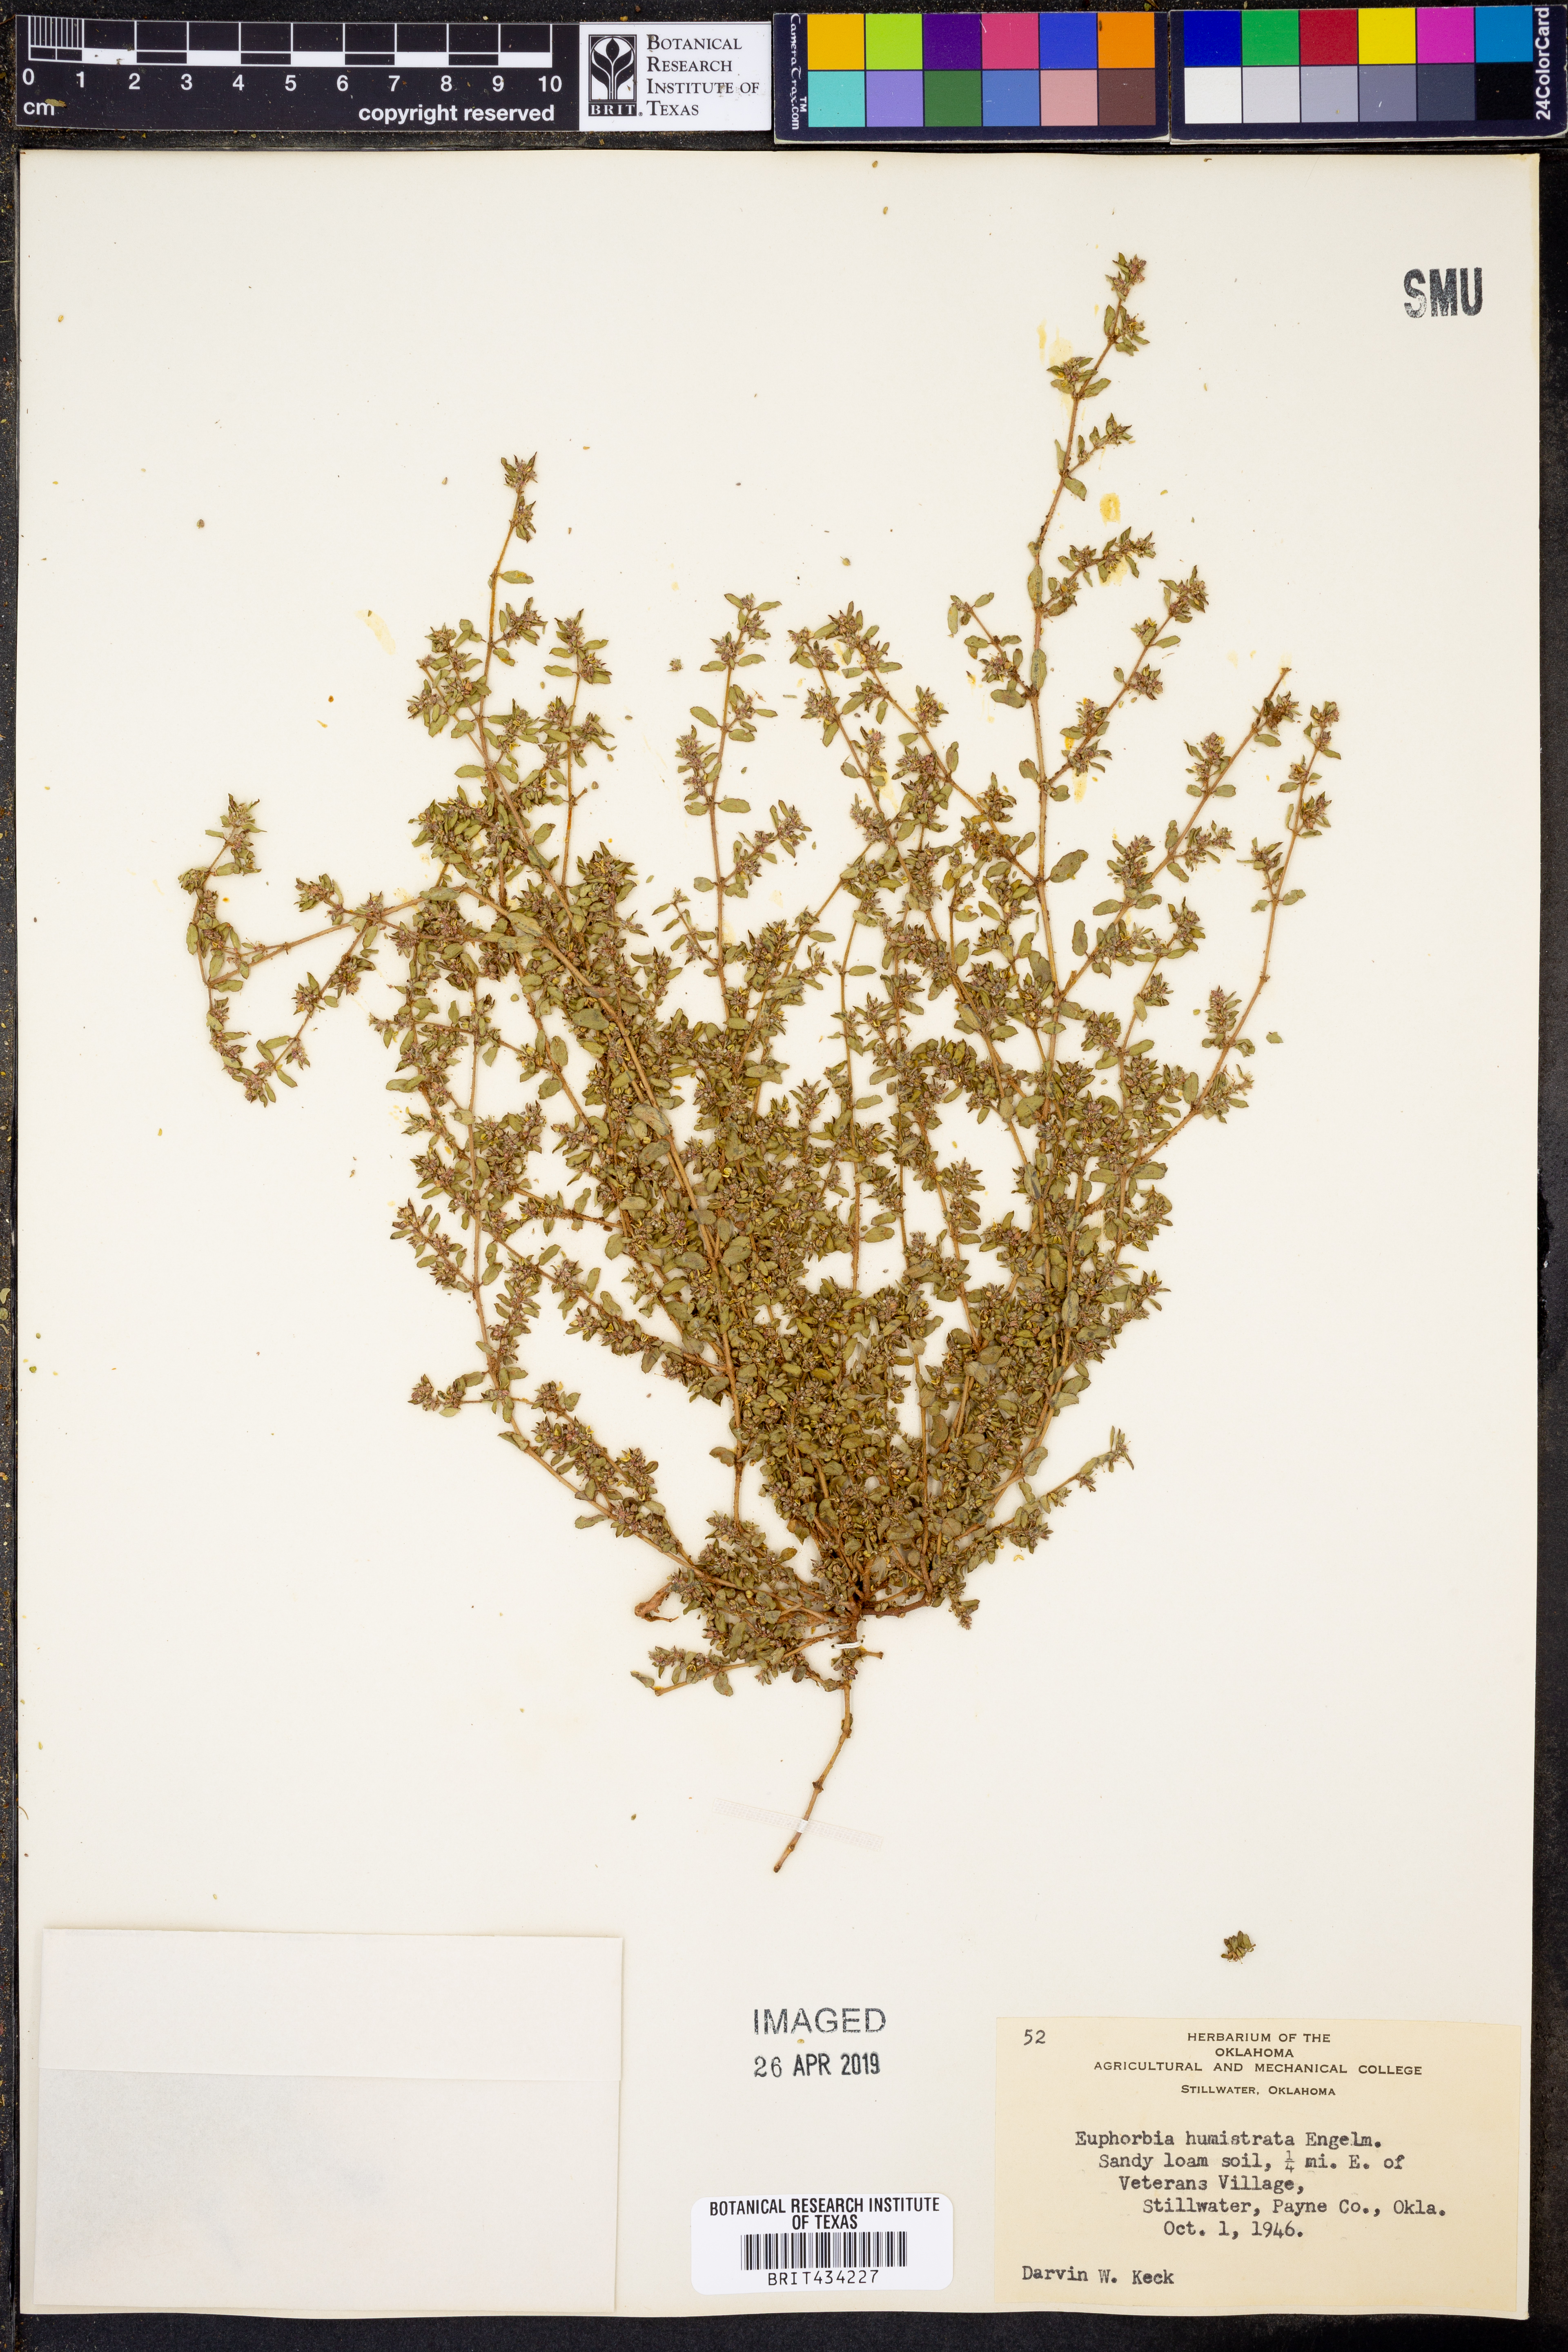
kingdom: Plantae
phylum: Tracheophyta
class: Magnoliopsida
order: Malpighiales
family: Euphorbiaceae
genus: Euphorbia
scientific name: Euphorbia humistrata
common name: Hairy spreading spurge
